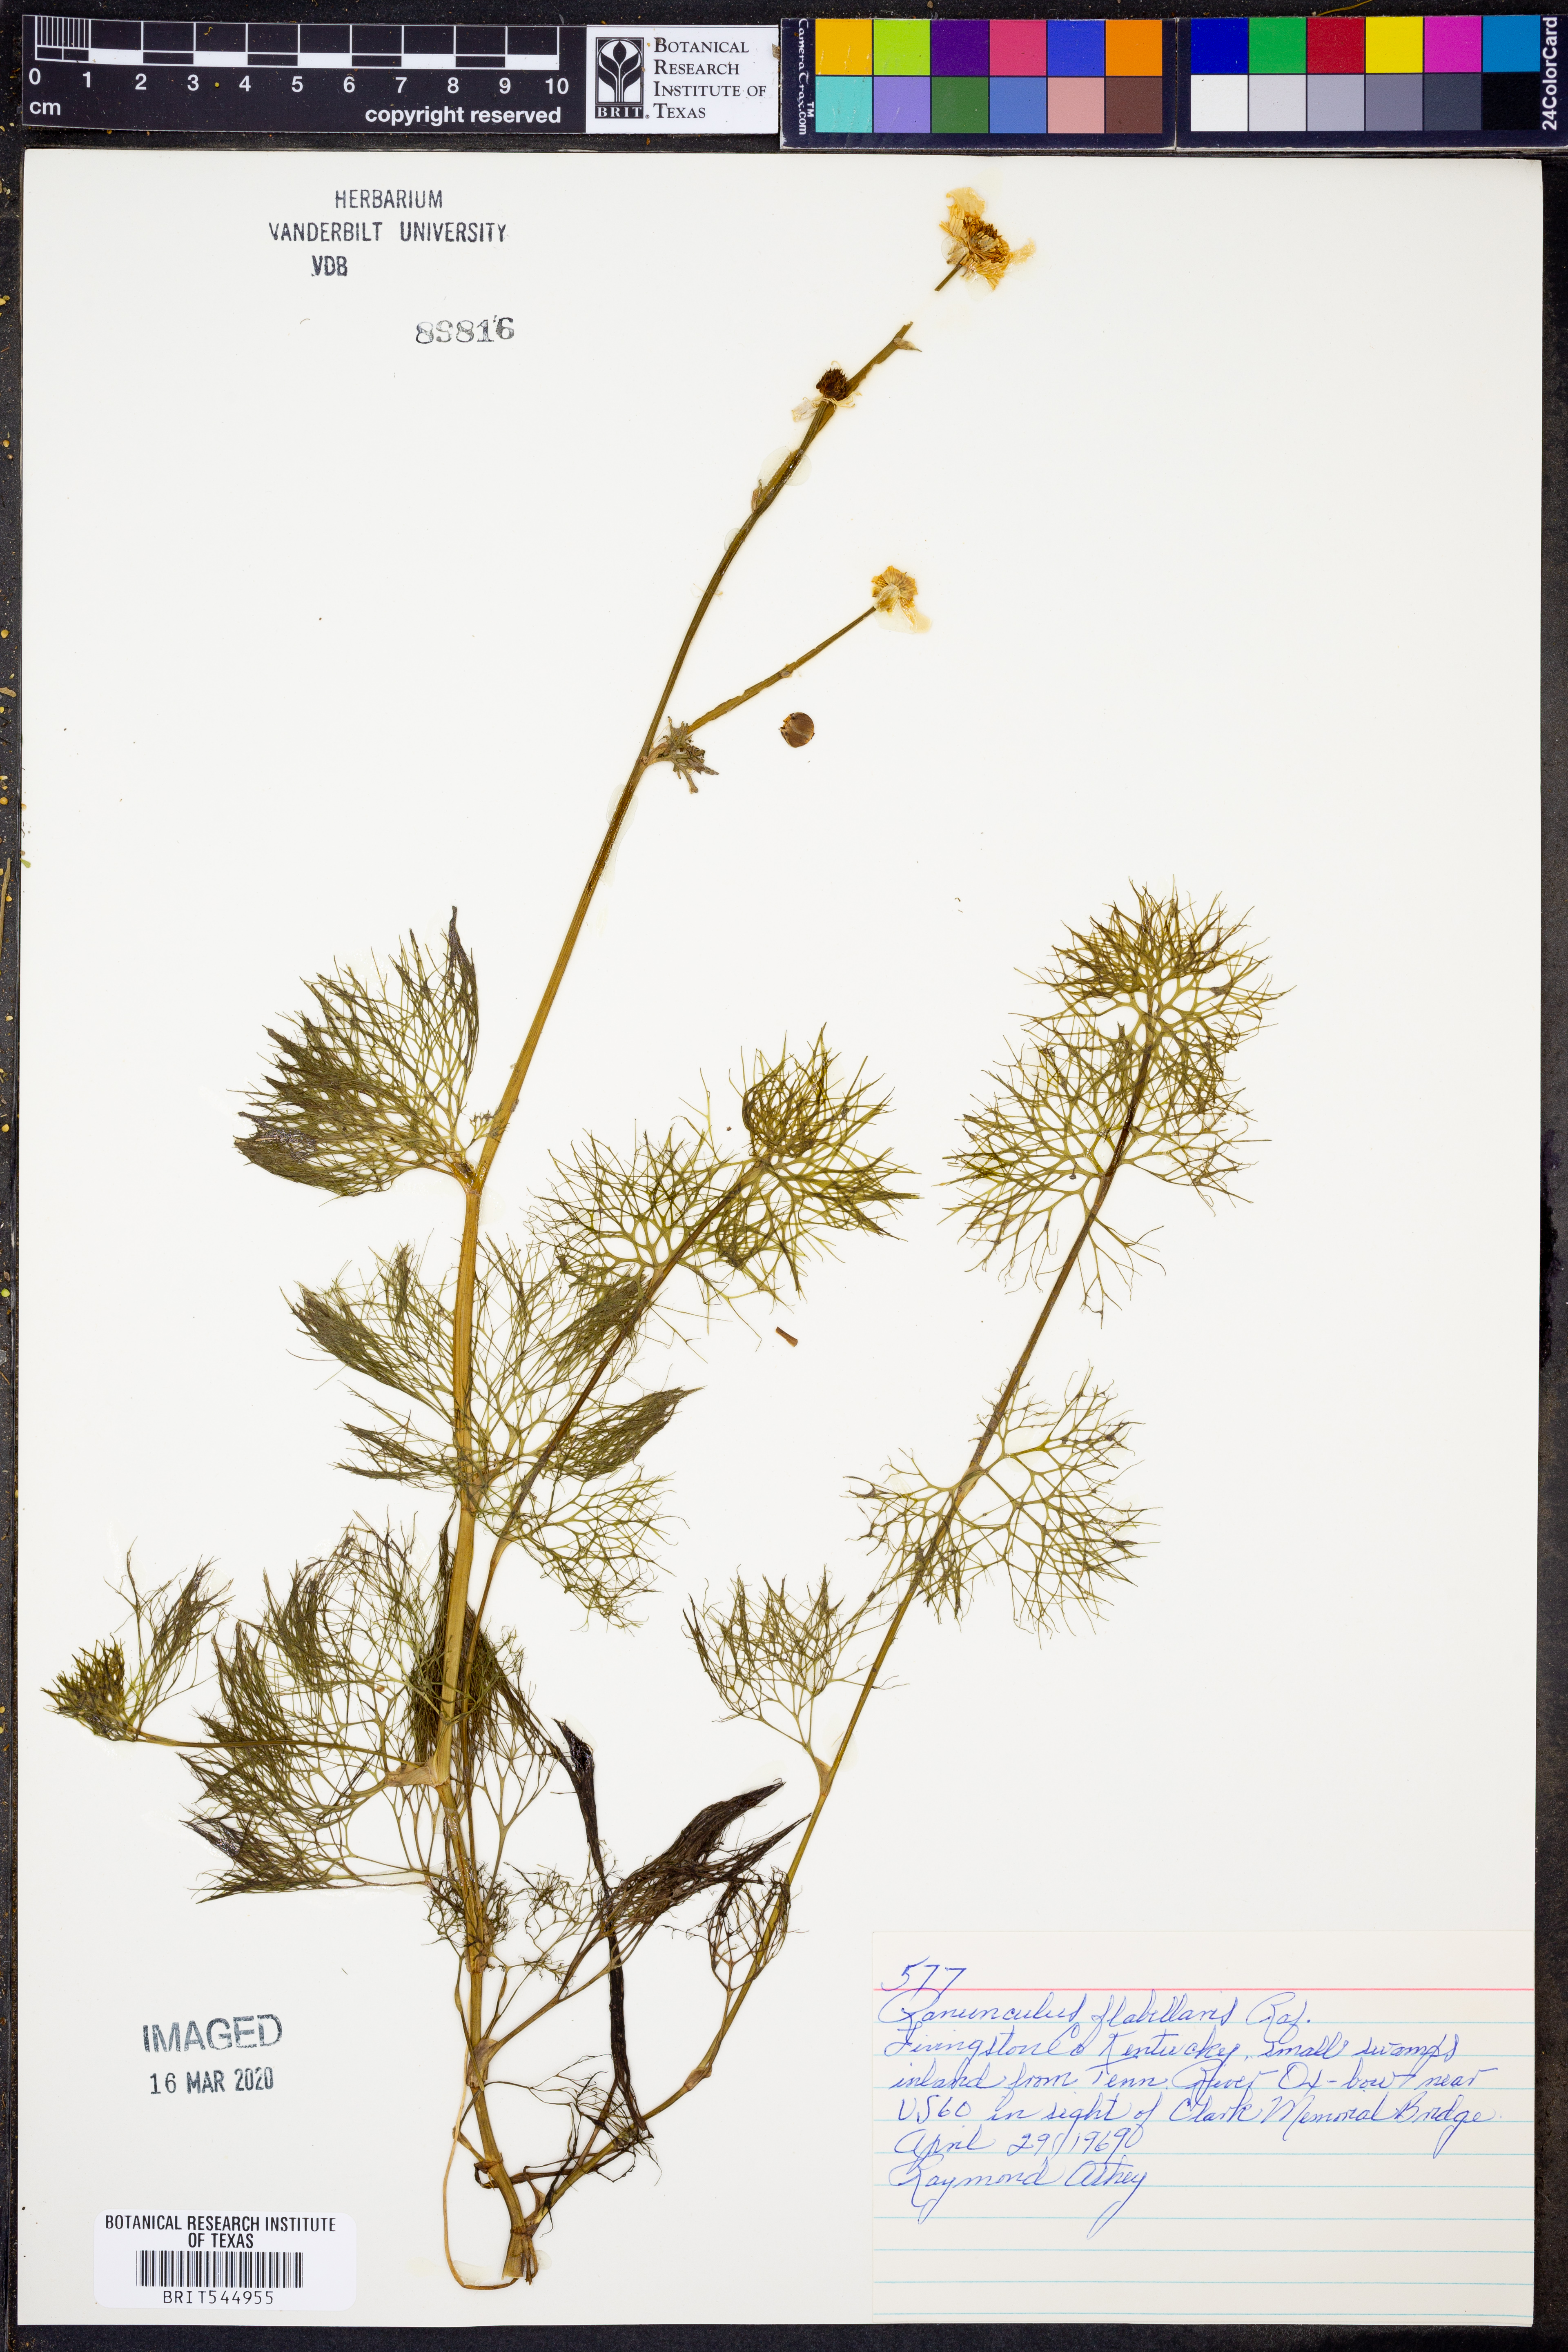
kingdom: Plantae
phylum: Tracheophyta
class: Magnoliopsida
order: Ranunculales
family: Ranunculaceae
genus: Ranunculus
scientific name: Ranunculus flabellaris
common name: Yellow water-crowfoot
